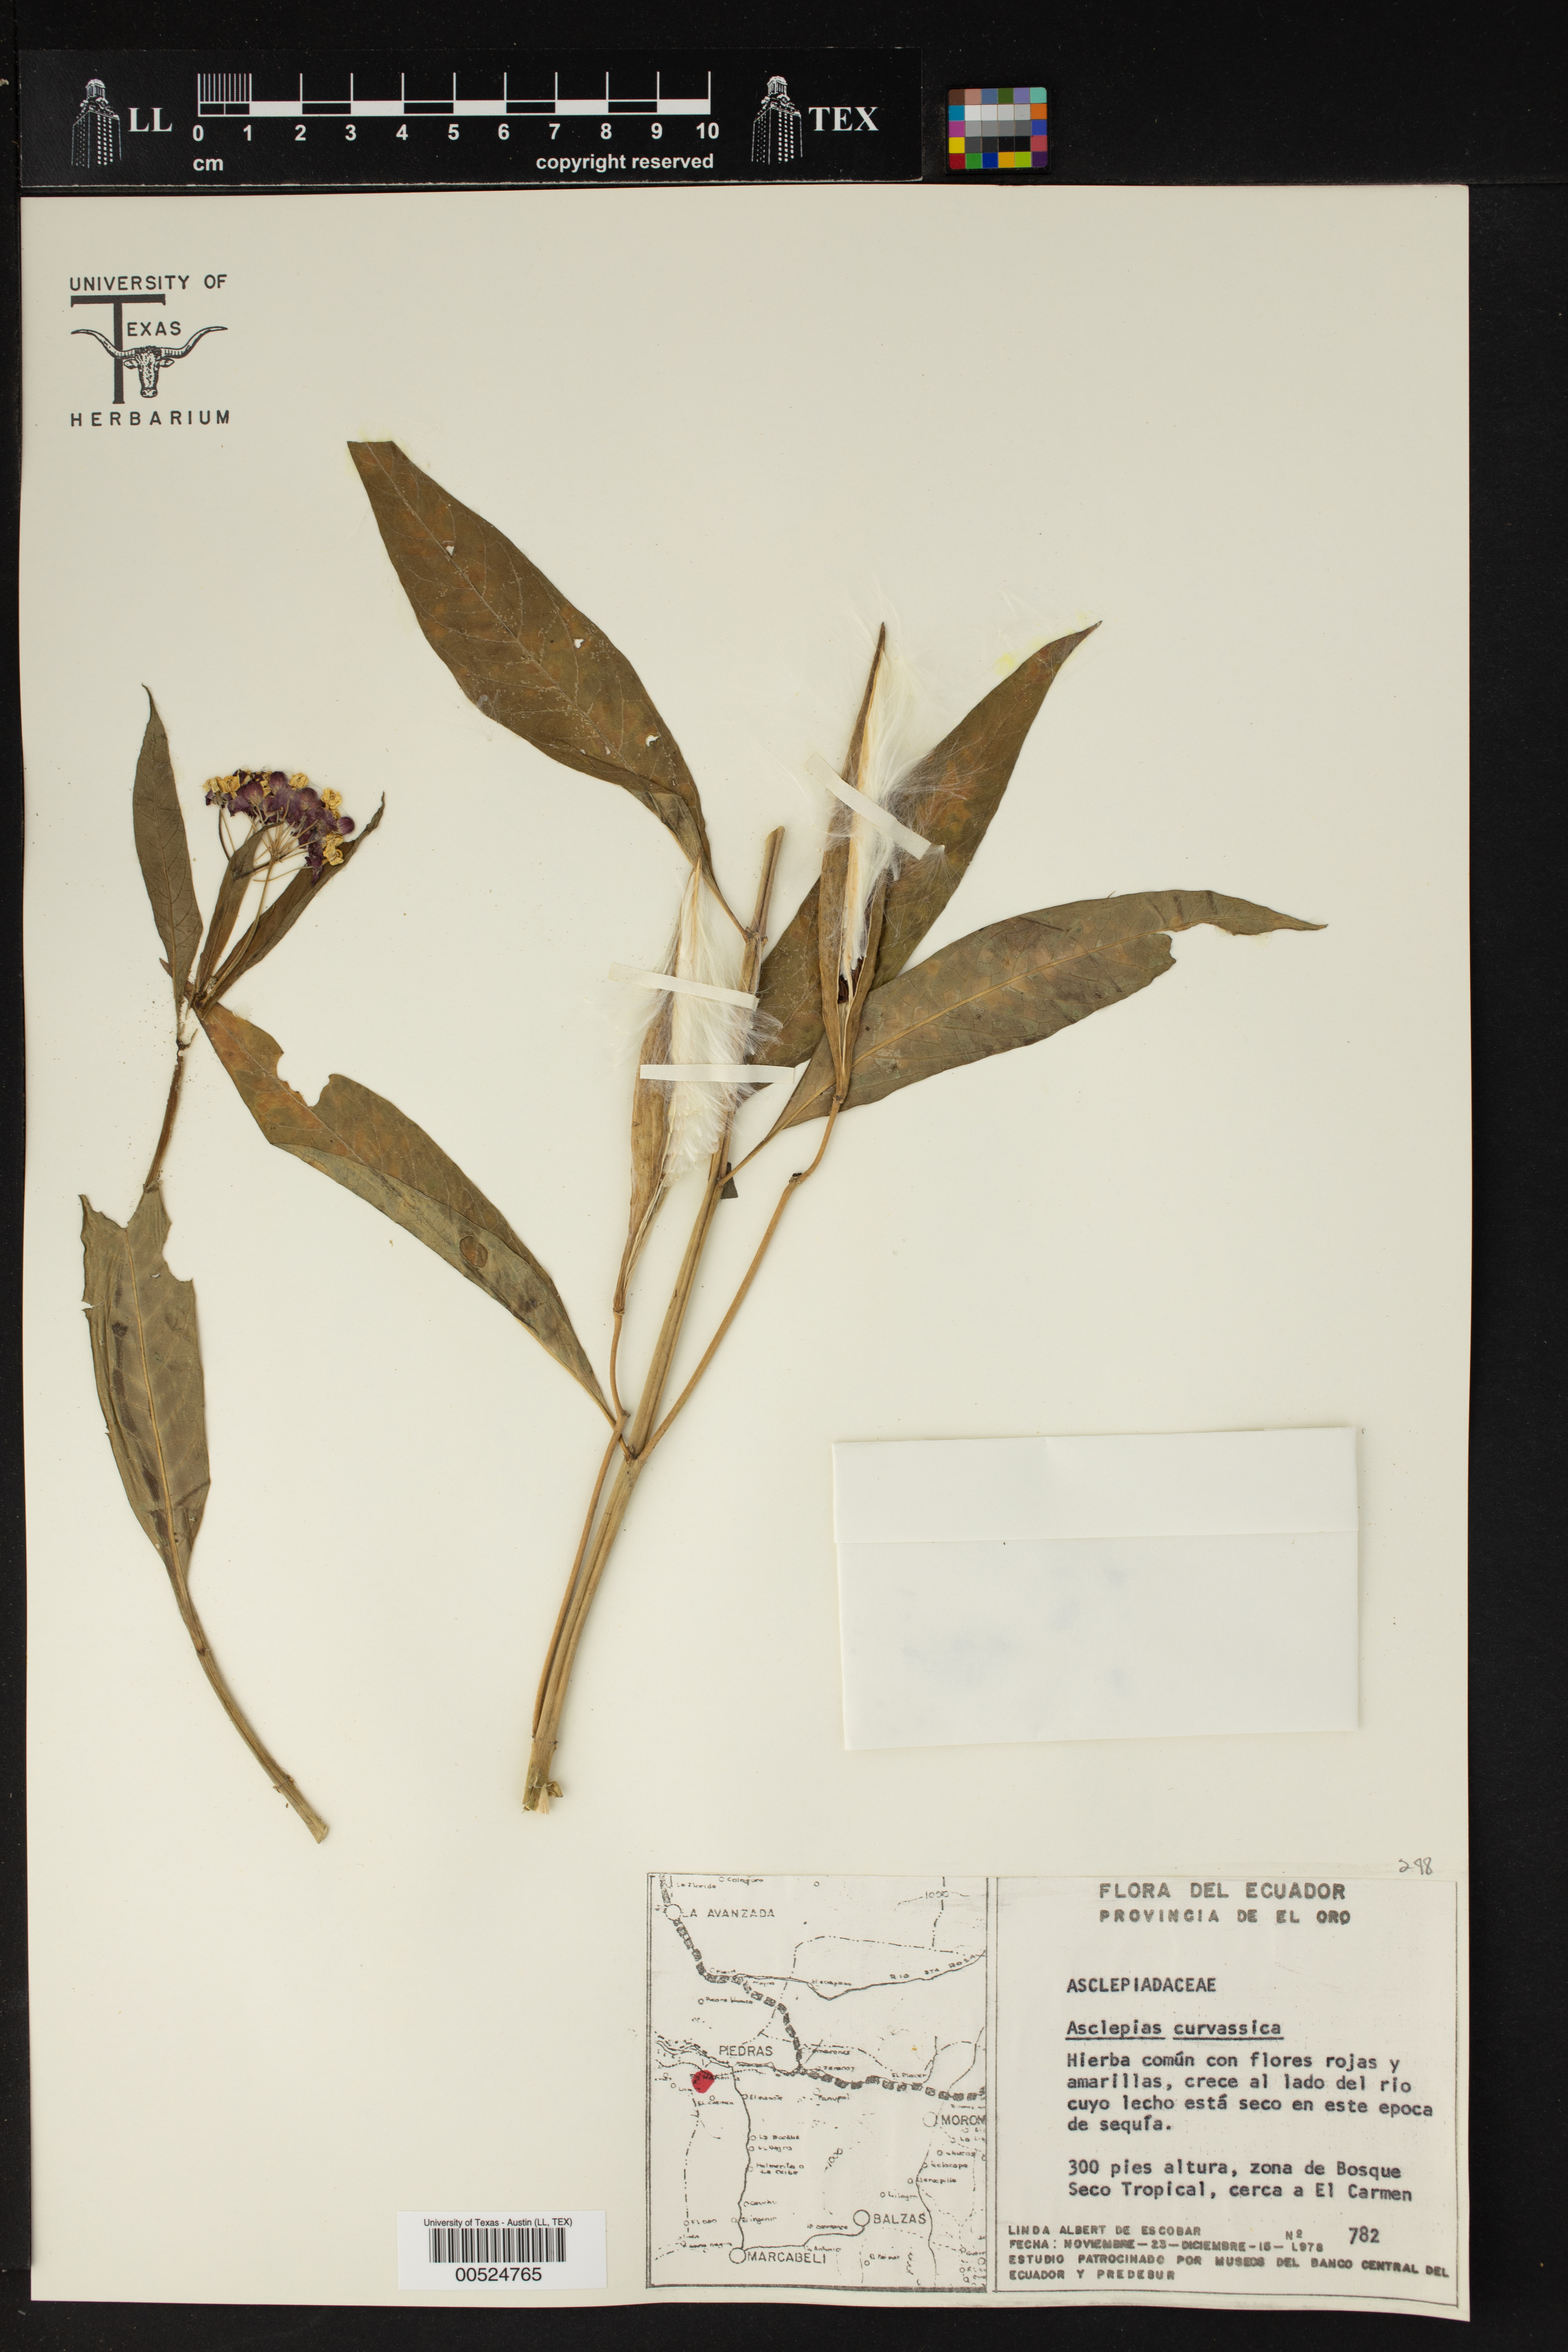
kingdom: Plantae
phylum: Tracheophyta
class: Magnoliopsida
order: Gentianales
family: Apocynaceae
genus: Asclepias
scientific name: Asclepias curassavica
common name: Bloodflower
